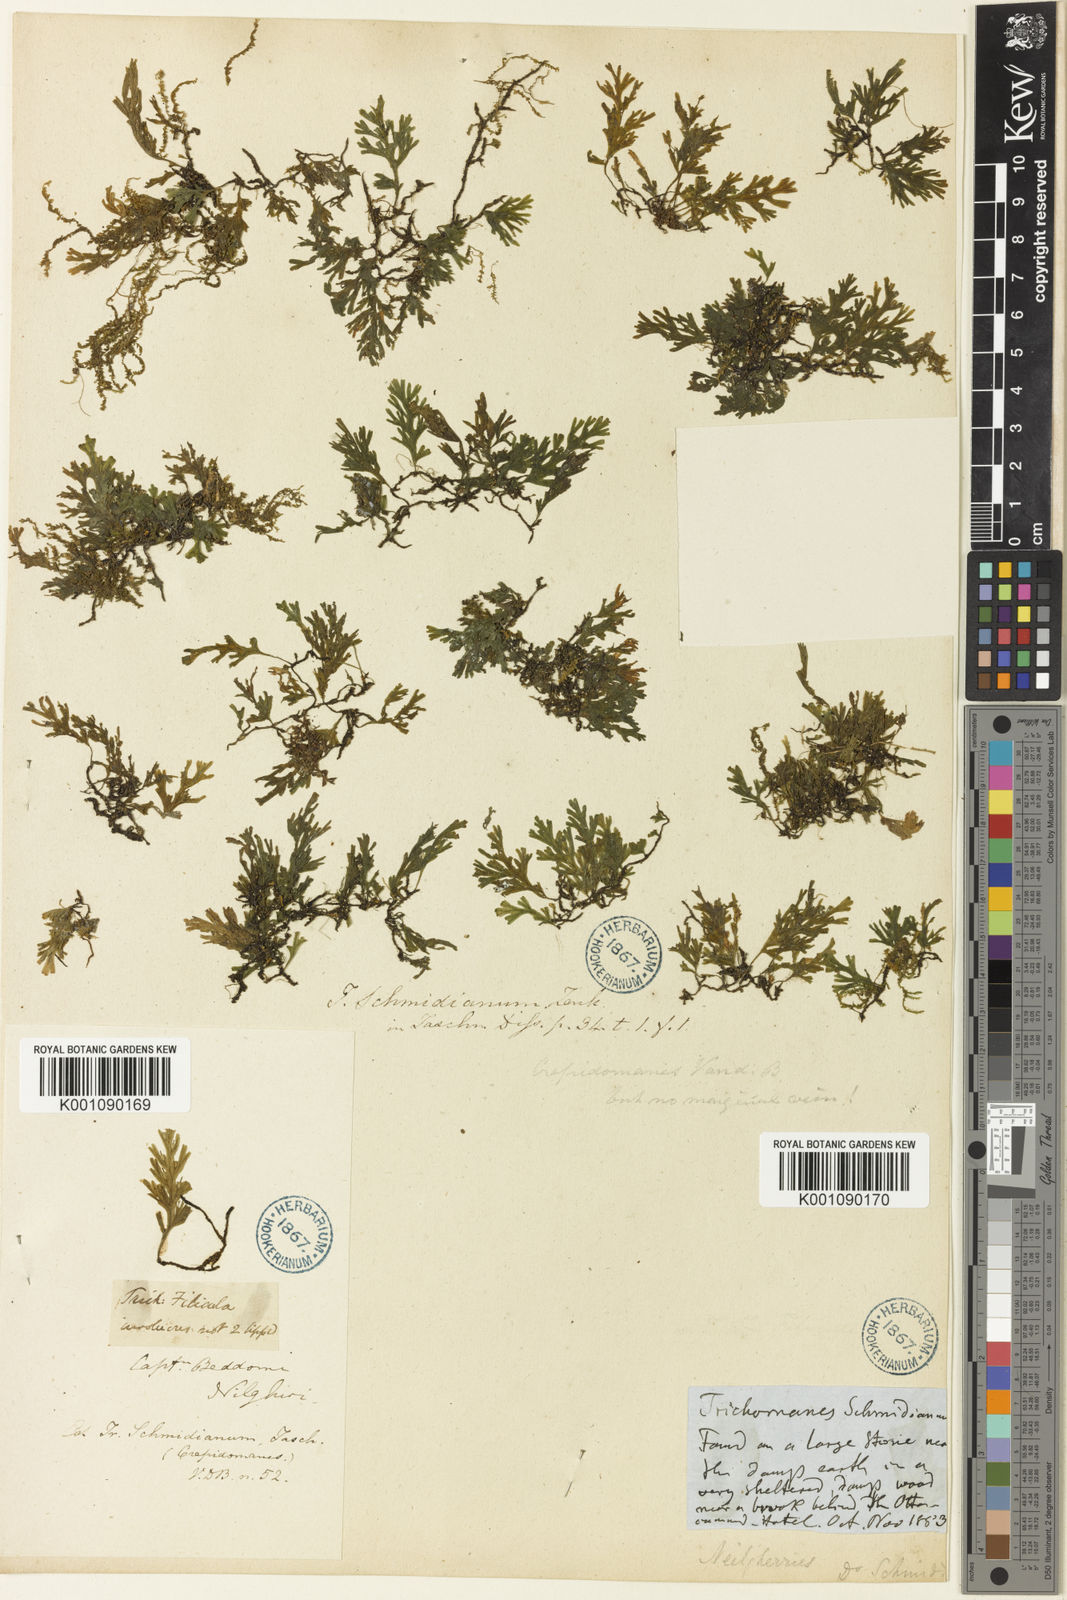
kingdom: Plantae
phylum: Tracheophyta
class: Polypodiopsida
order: Hymenophyllales
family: Hymenophyllaceae
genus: Crepidomanes
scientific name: Crepidomanes schmidianum
